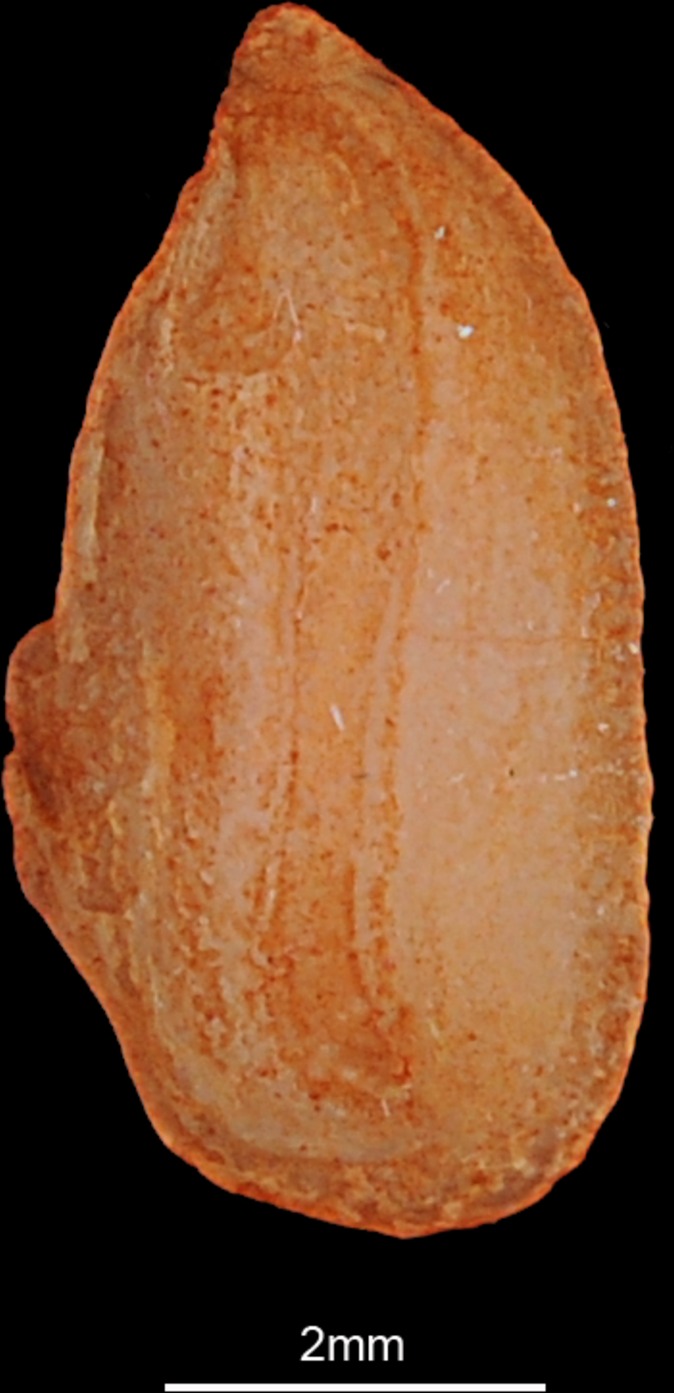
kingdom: Animalia
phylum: Chordata
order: Beloniformes
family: Hemiramphidae
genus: Hemiramphus
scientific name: Hemiramphus balao
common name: Balao
